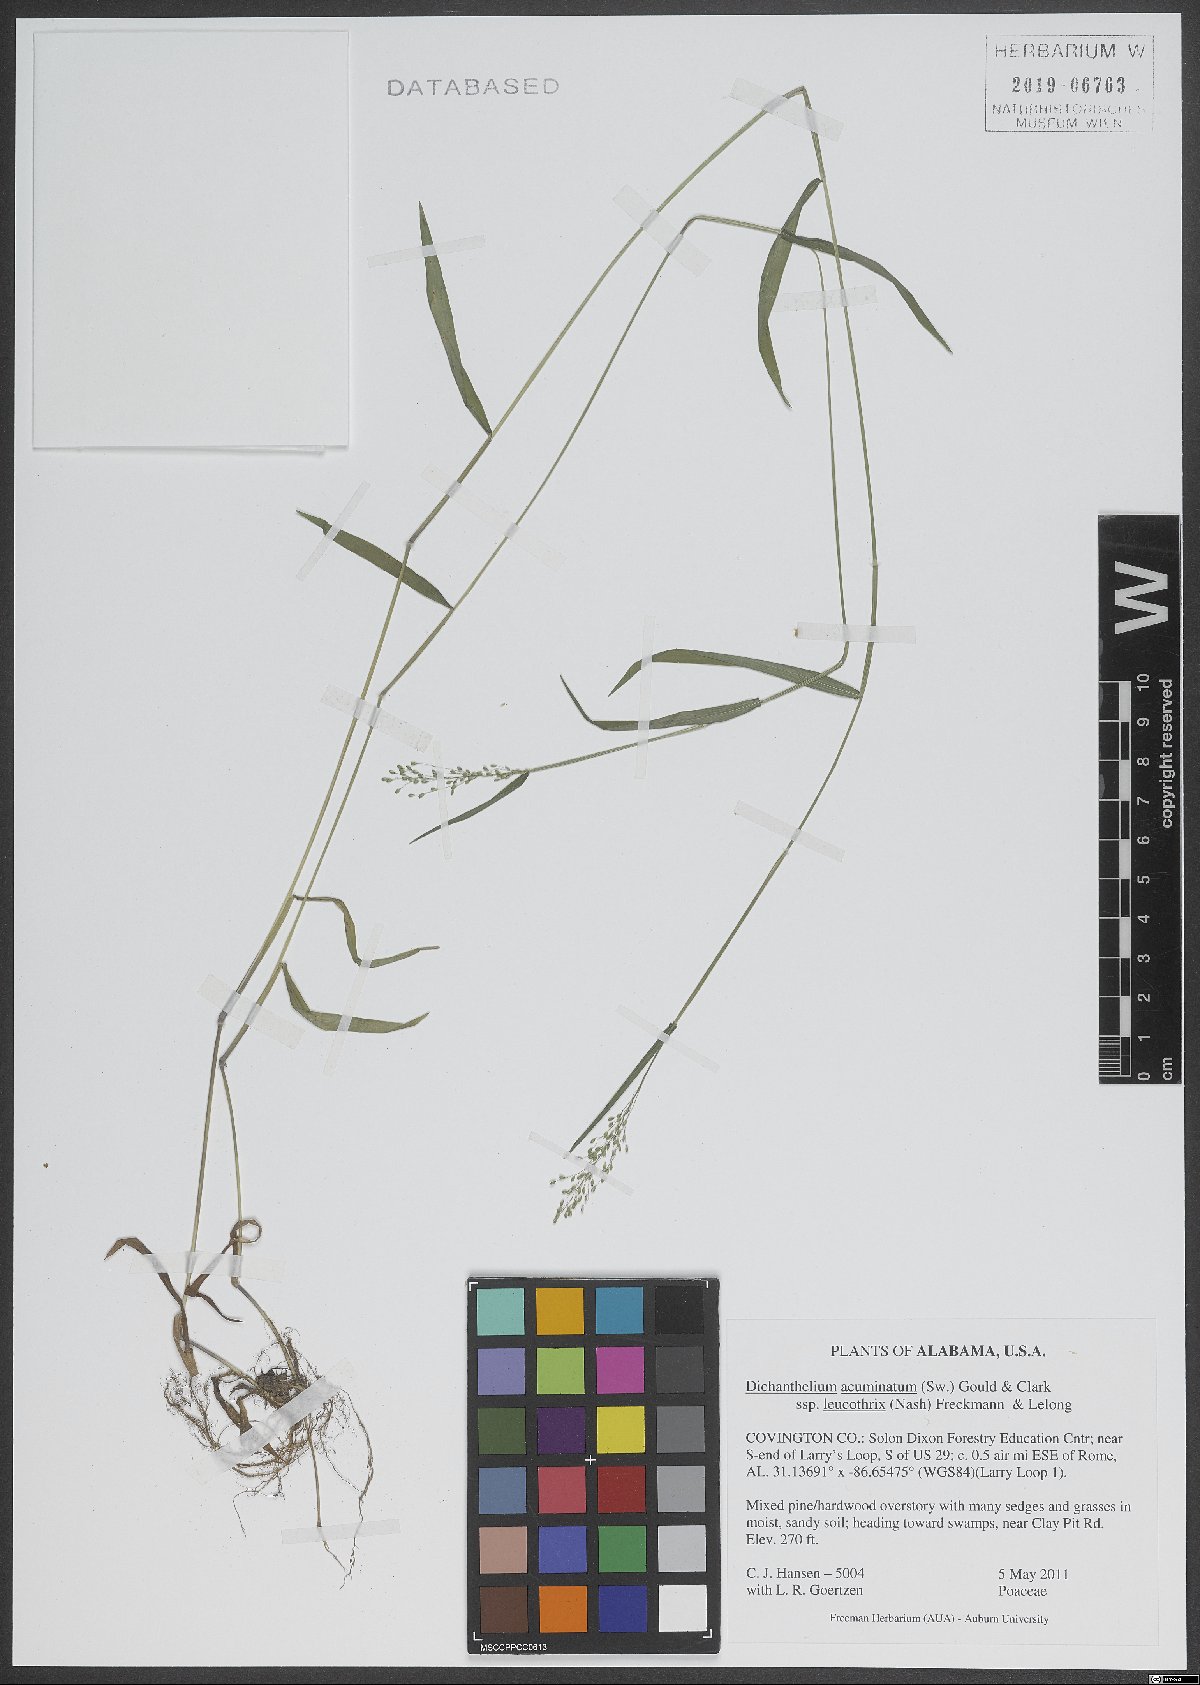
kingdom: Plantae
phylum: Tracheophyta
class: Liliopsida
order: Poales
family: Poaceae
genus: Dichanthelium
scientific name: Dichanthelium leucothrix
